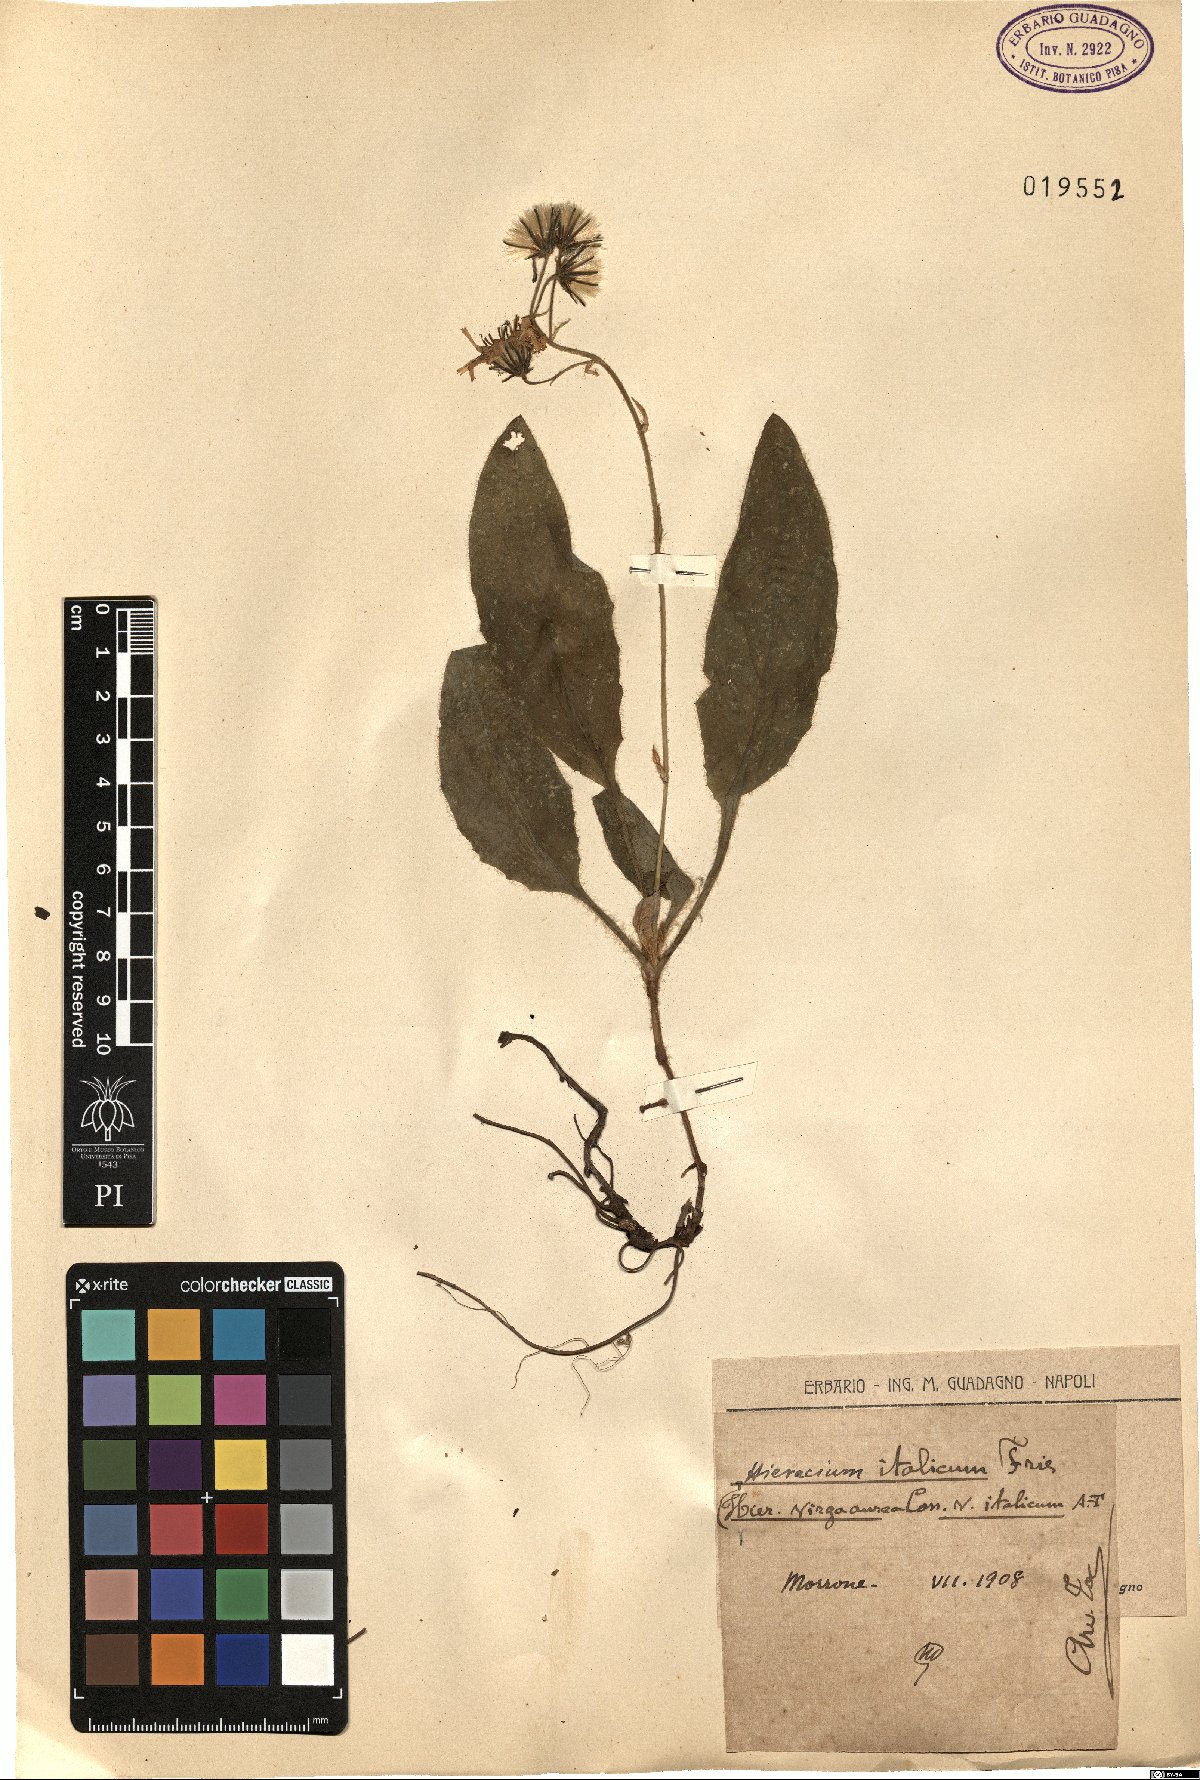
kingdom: Plantae
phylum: Tracheophyta
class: Magnoliopsida
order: Asterales
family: Asteraceae
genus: Hieracium
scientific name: Hieracium racemosum
